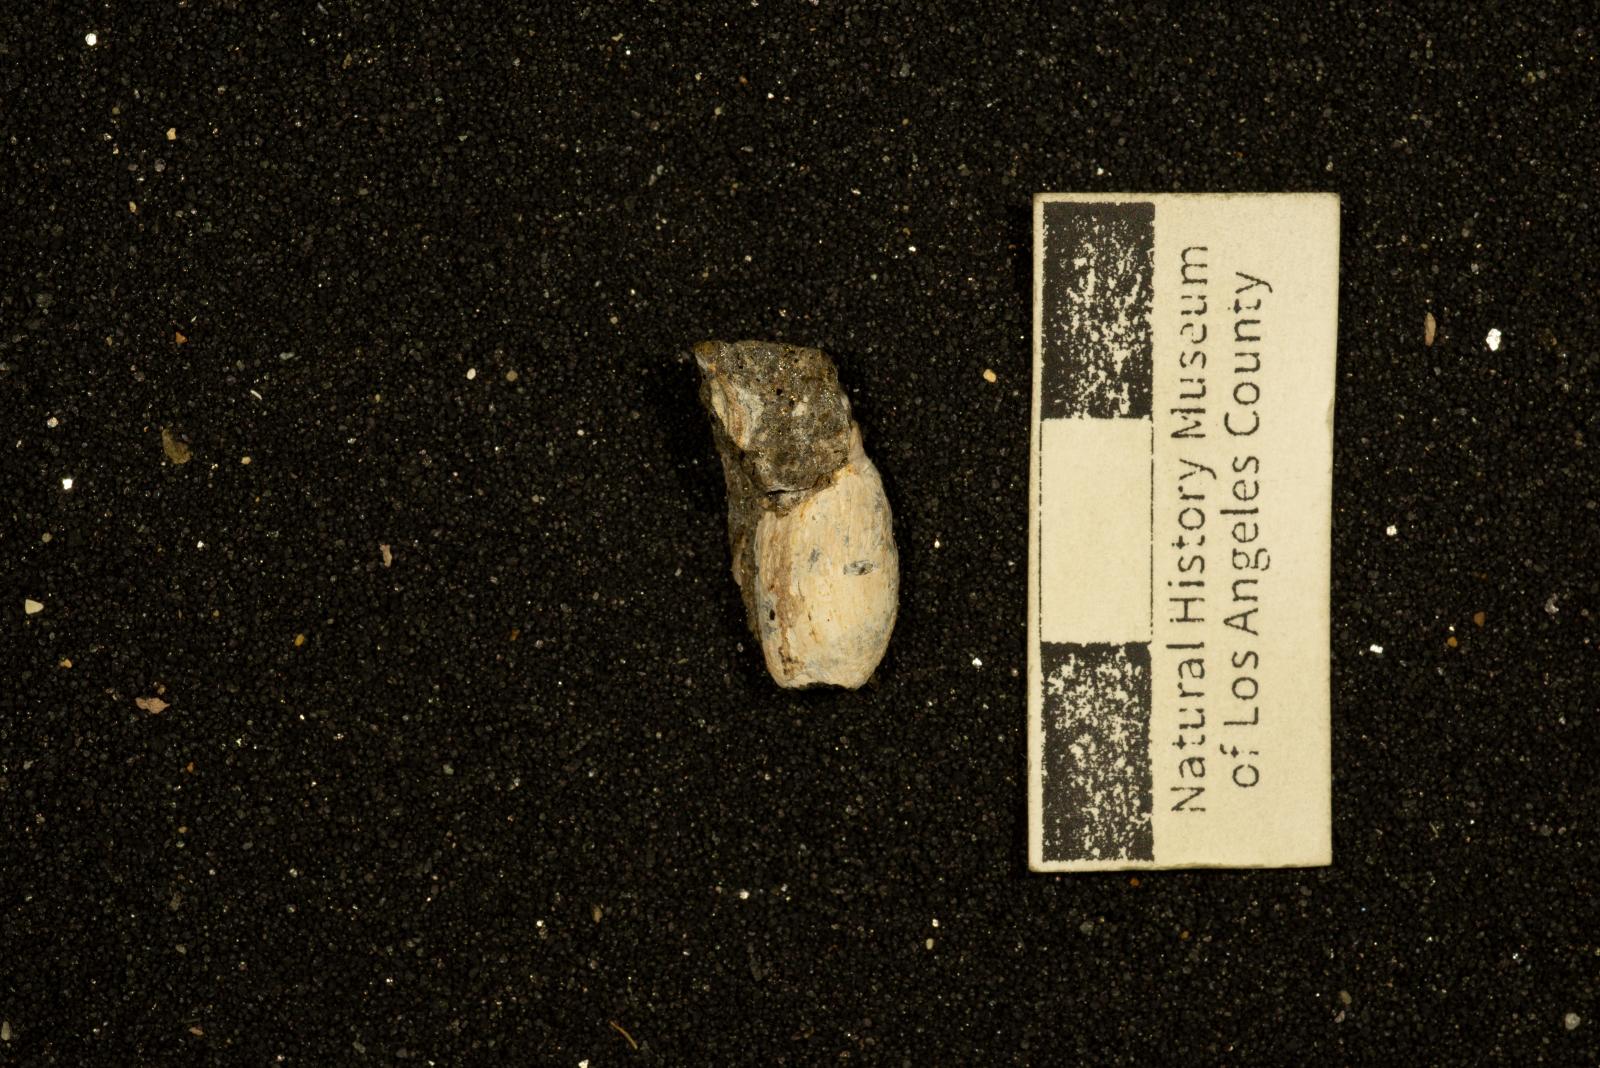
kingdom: Animalia
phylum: Mollusca
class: Gastropoda
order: Cephalaspidea
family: Acteonidae
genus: Nonacteonina
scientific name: Nonacteonina
